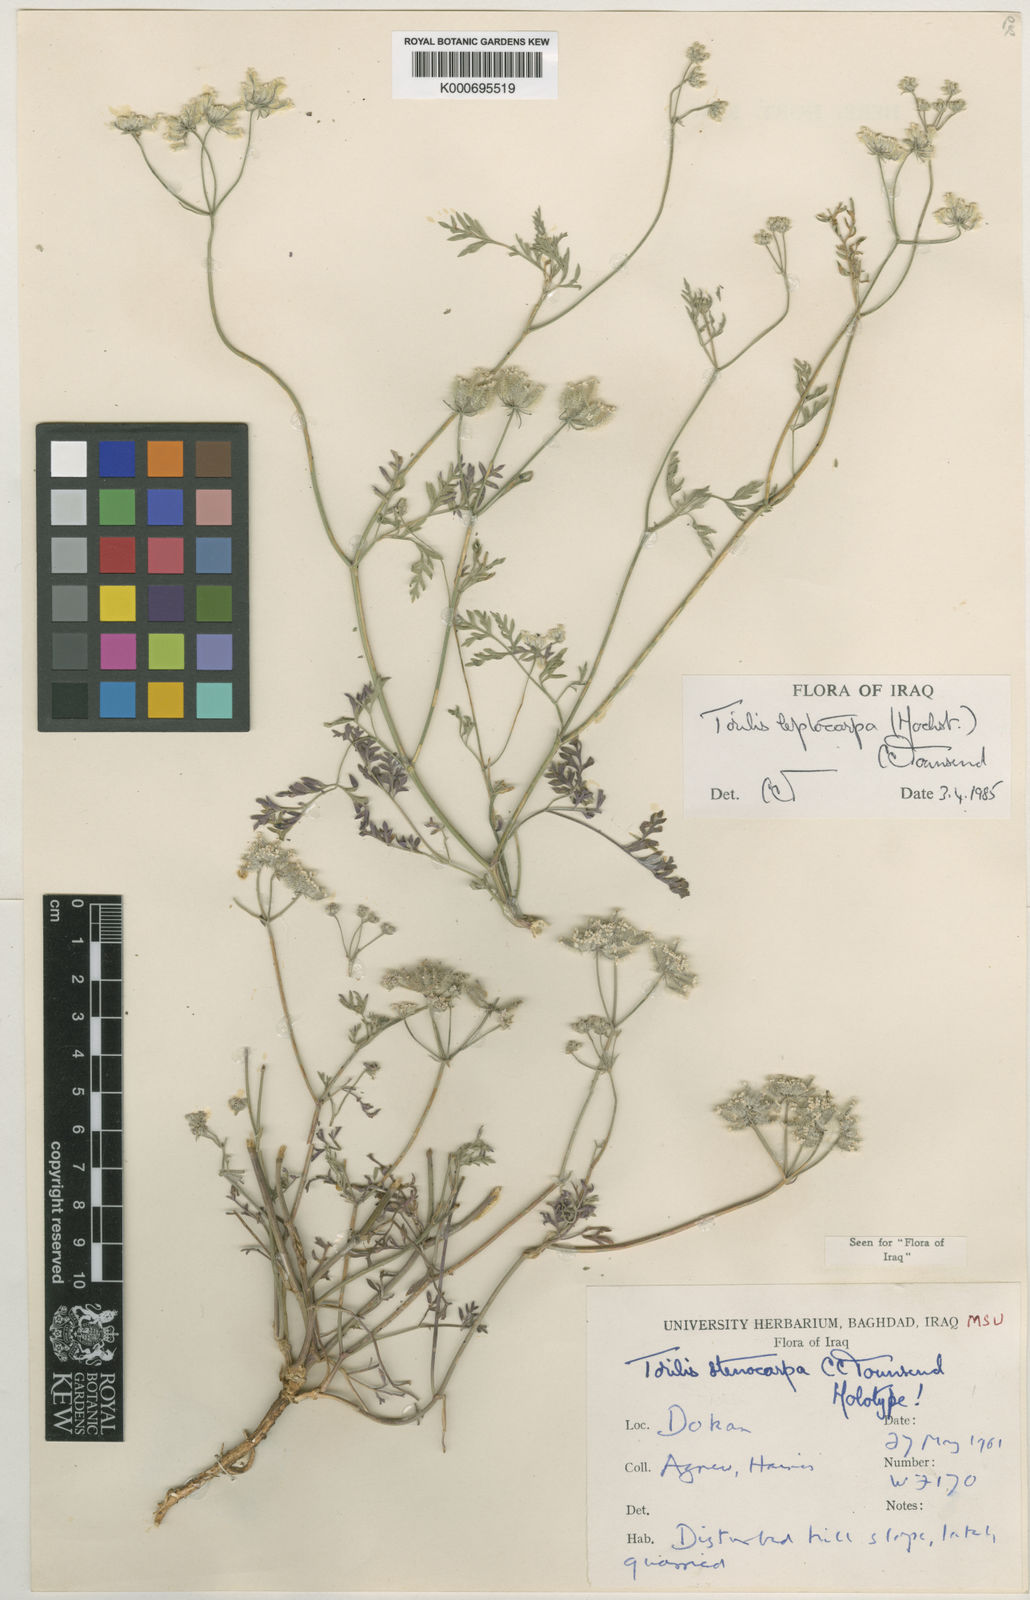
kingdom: Plantae
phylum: Tracheophyta
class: Magnoliopsida
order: Apiales
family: Apiaceae
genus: Torilis
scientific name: Torilis leptocarpa
